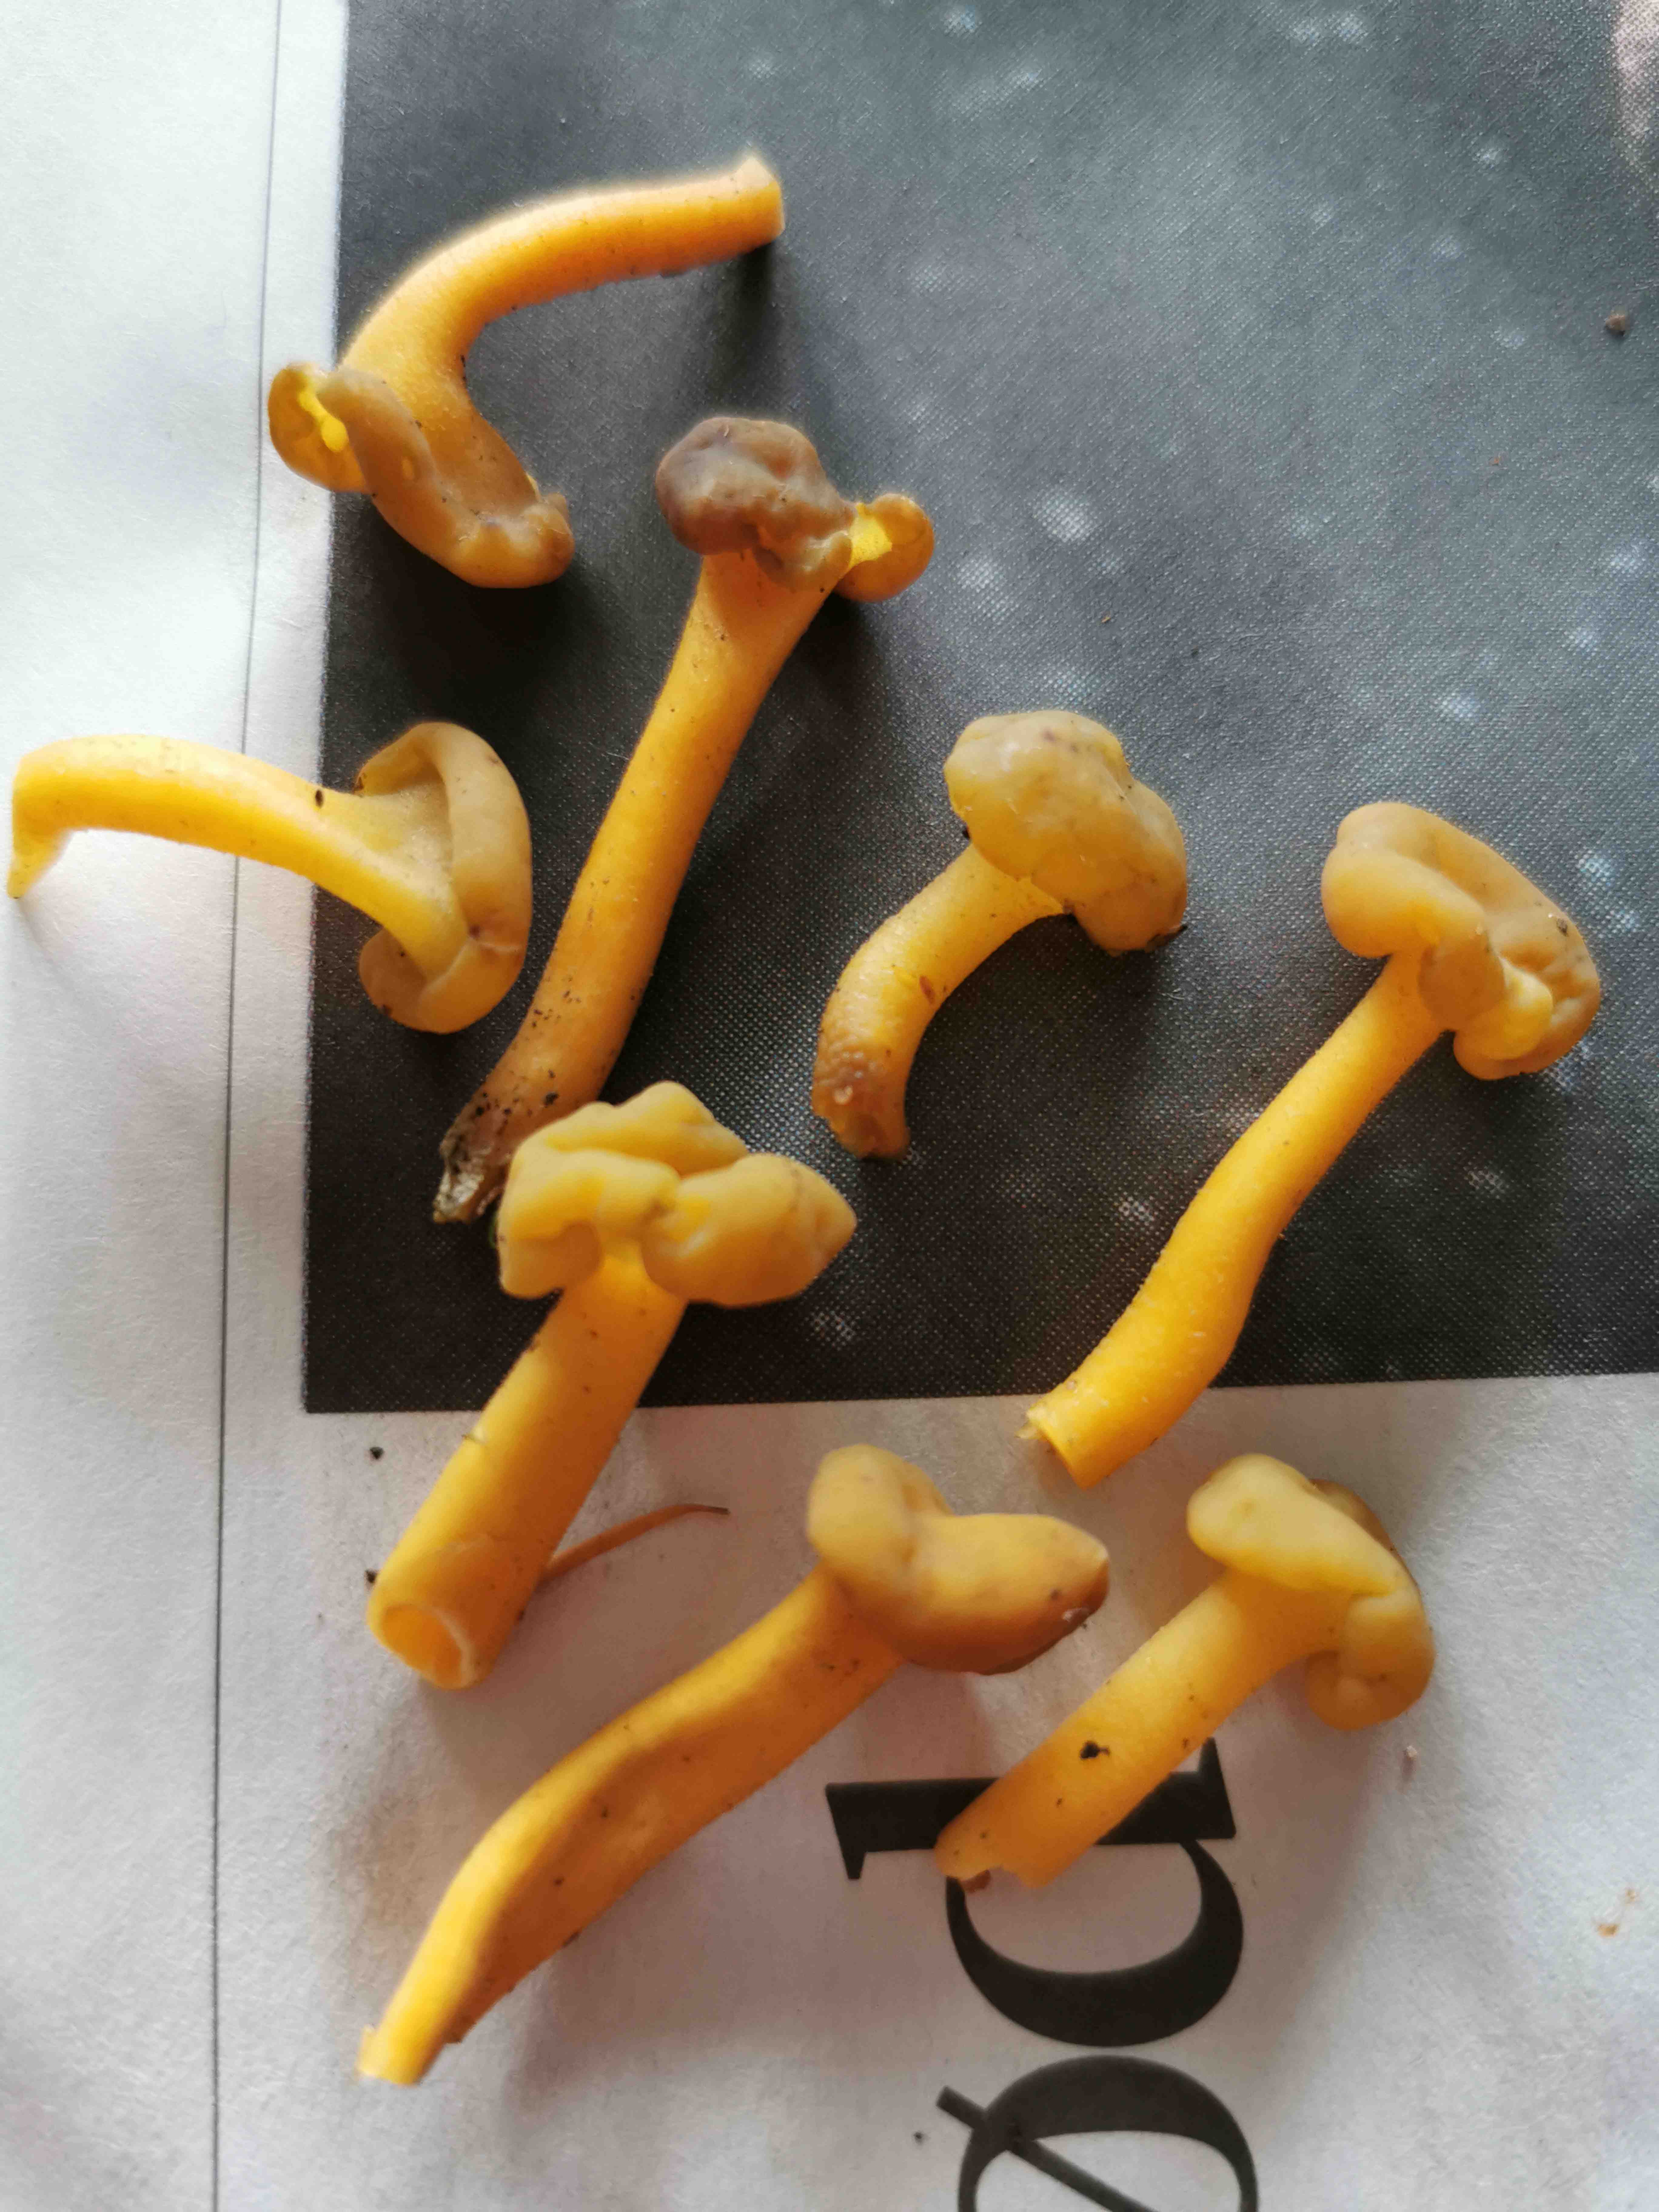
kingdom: Fungi
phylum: Ascomycota
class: Leotiomycetes
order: Leotiales
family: Leotiaceae
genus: Leotia
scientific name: Leotia lubrica
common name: ravsvamp
